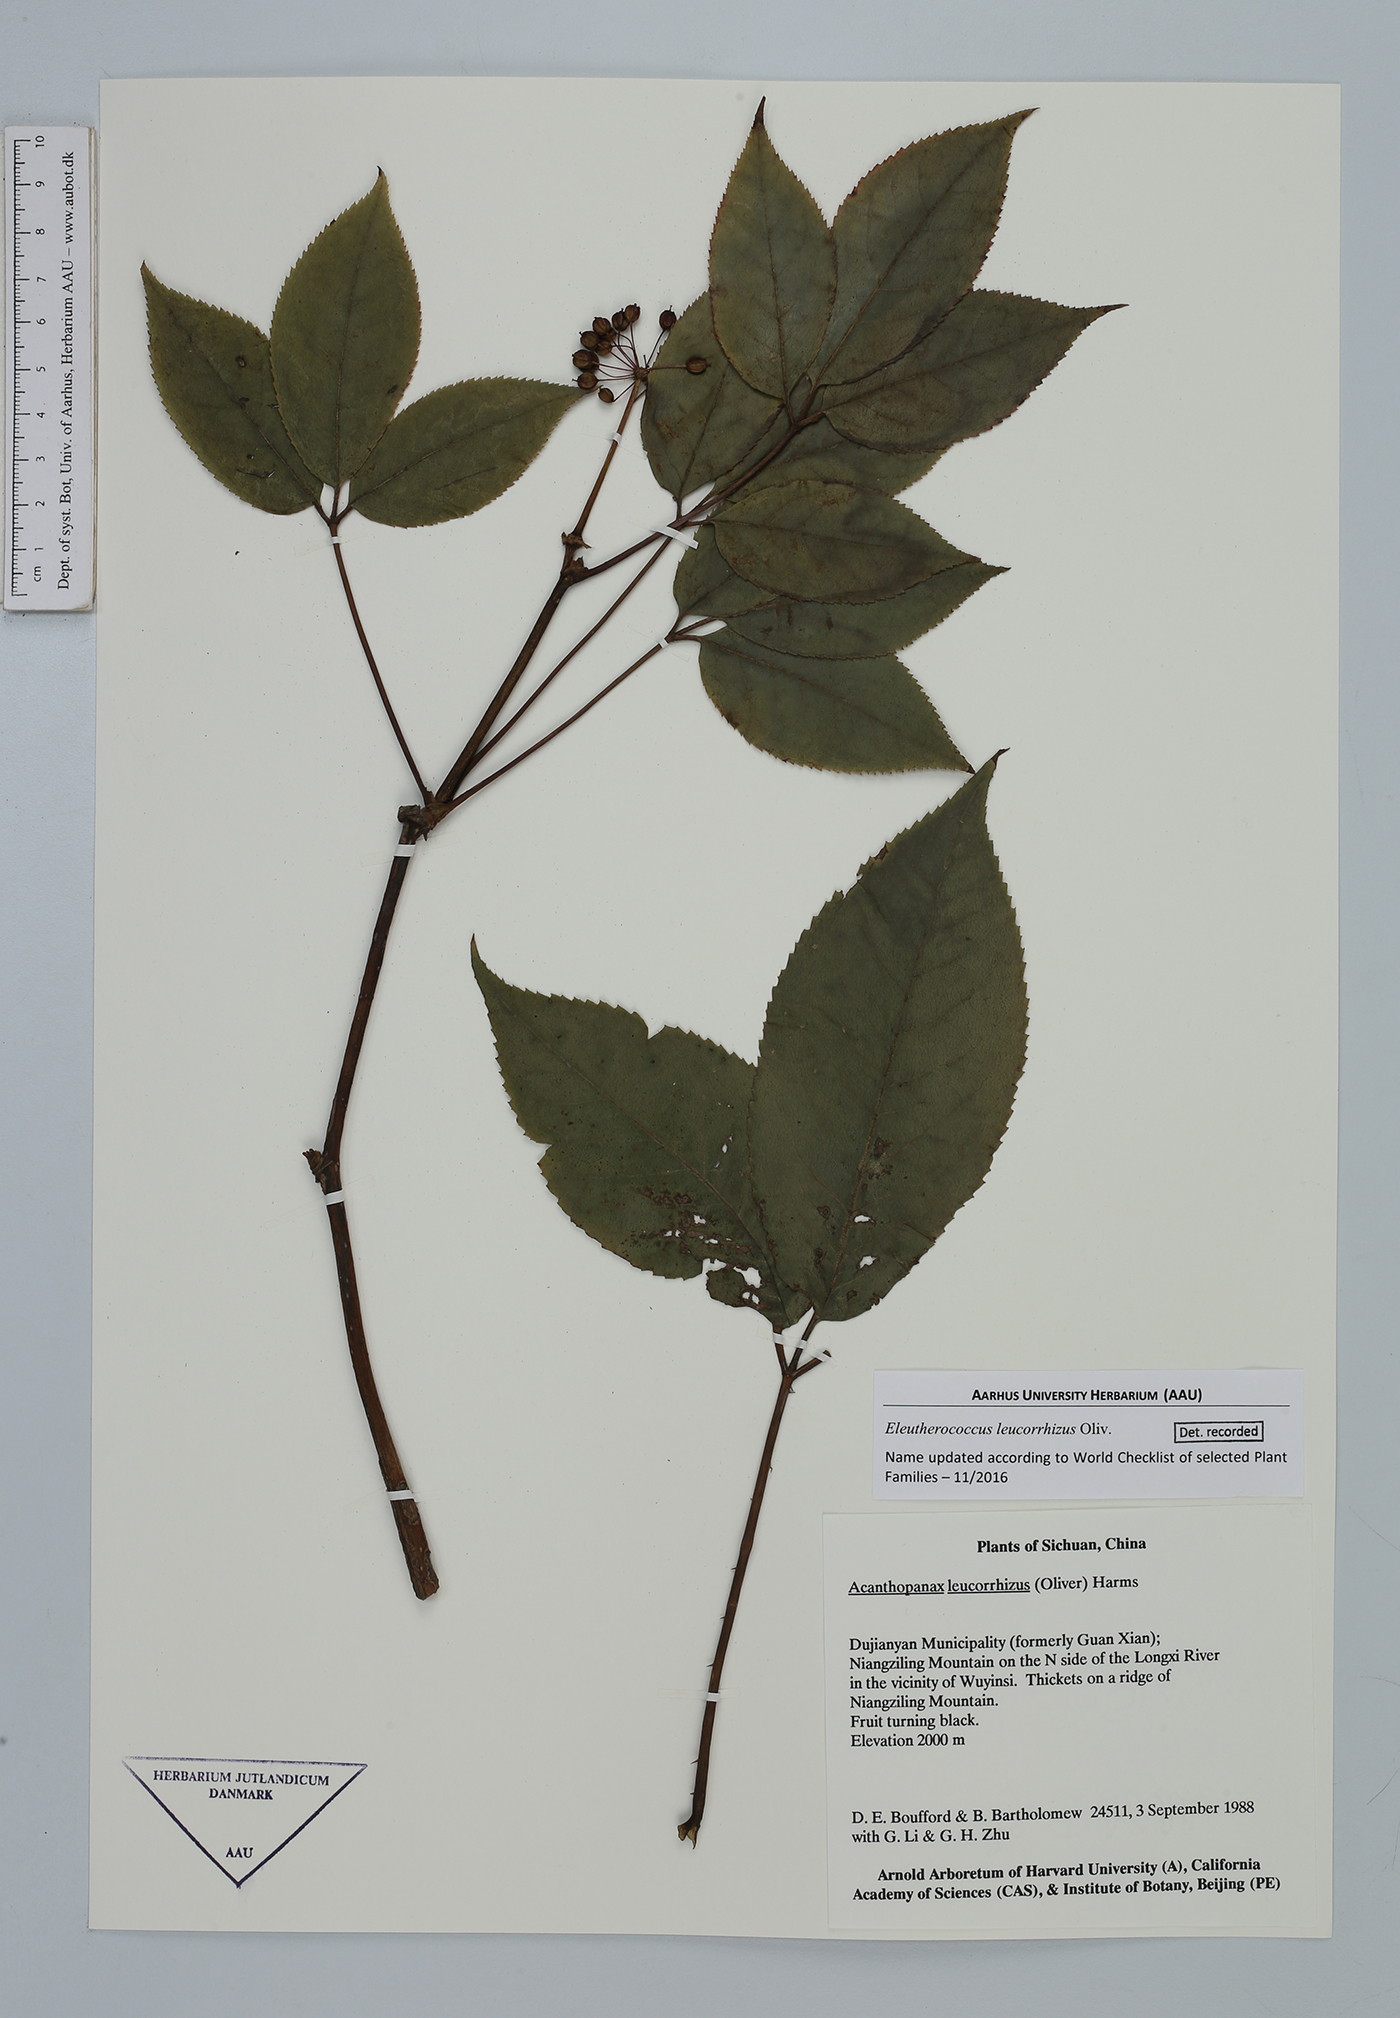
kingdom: Plantae
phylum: Tracheophyta
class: Magnoliopsida
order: Apiales
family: Araliaceae
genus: Eleutherococcus
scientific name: Eleutherococcus leucorrhizus
